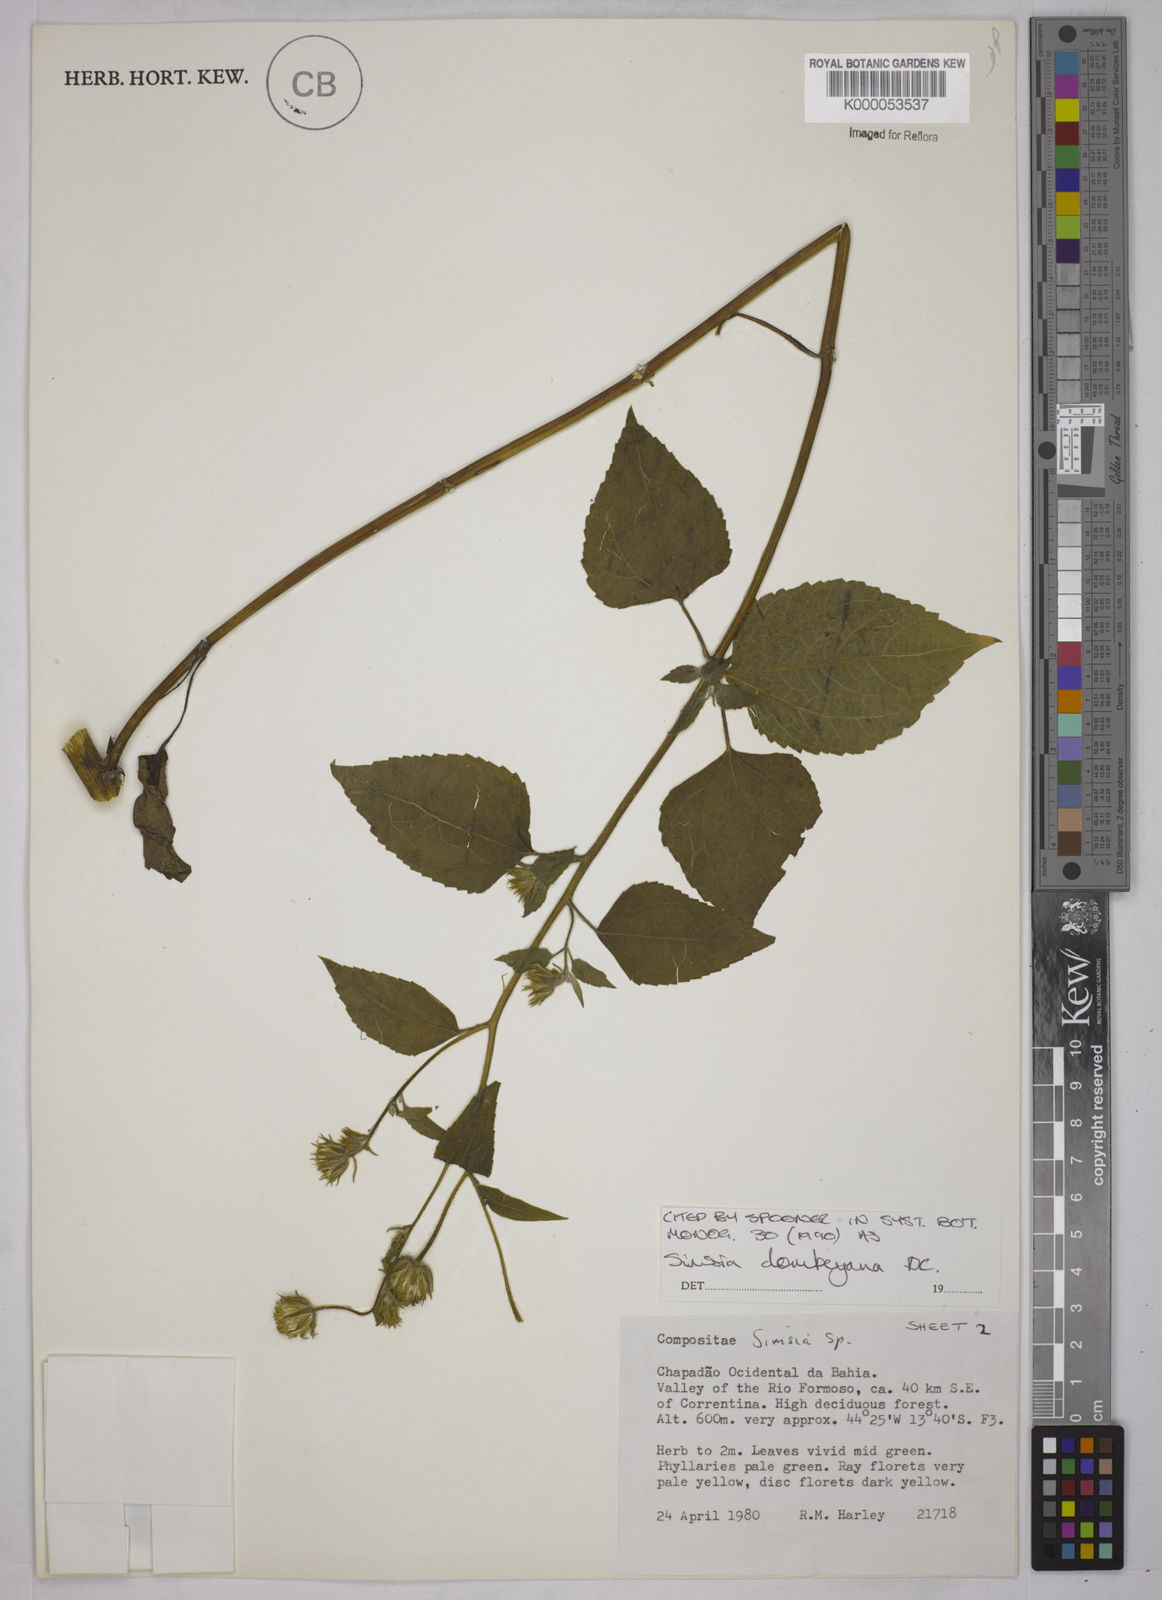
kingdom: Plantae
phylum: Tracheophyta
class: Magnoliopsida
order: Asterales
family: Asteraceae
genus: Simsia
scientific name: Simsia dombeyana
